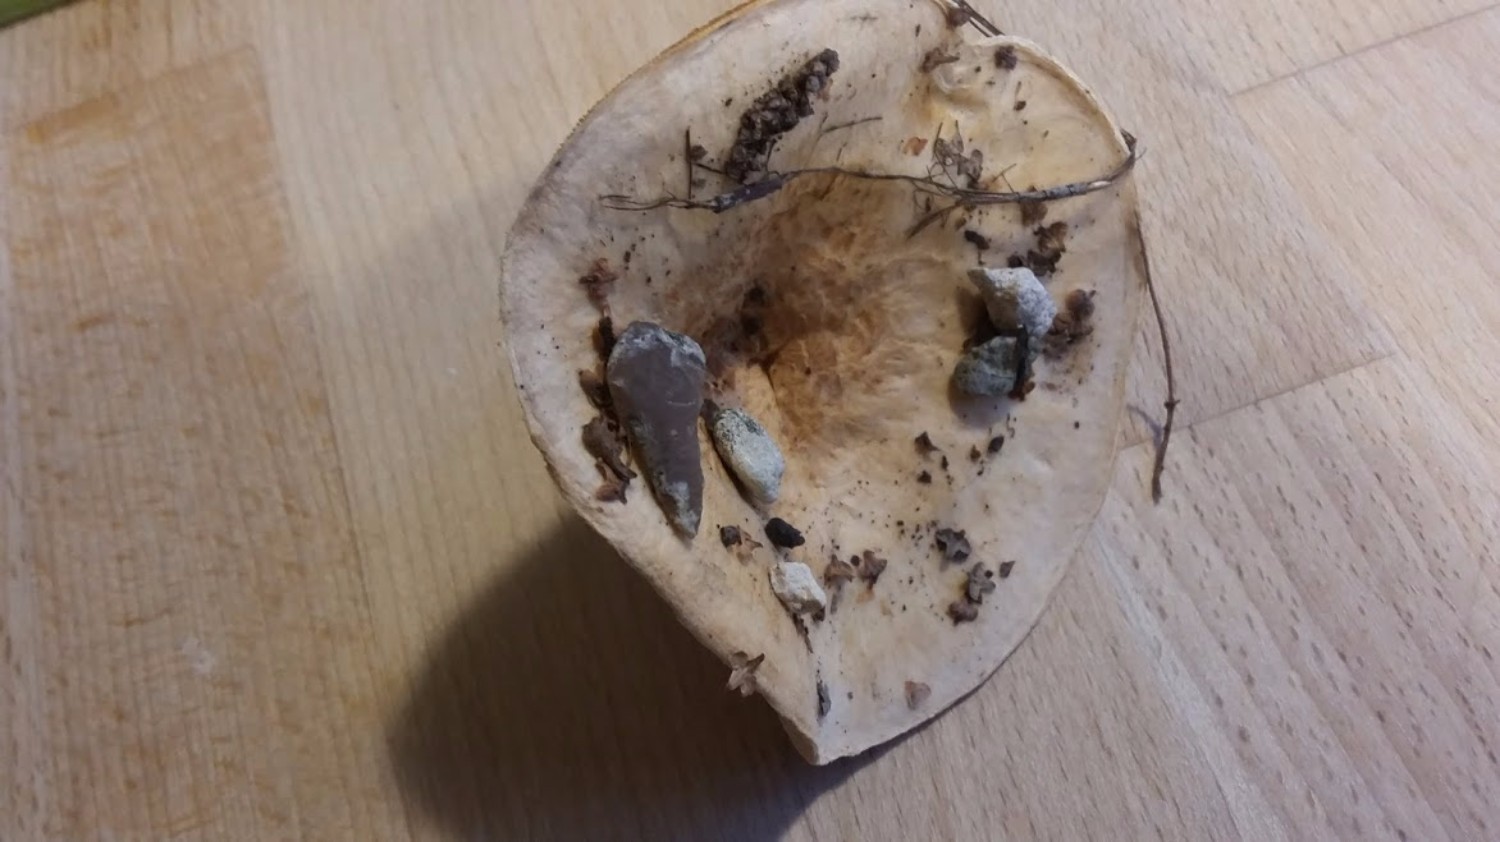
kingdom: Fungi
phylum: Basidiomycota
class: Agaricomycetes
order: Russulales
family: Russulaceae
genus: Lactarius
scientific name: Lactarius pubescens
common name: dunet mælkehat
